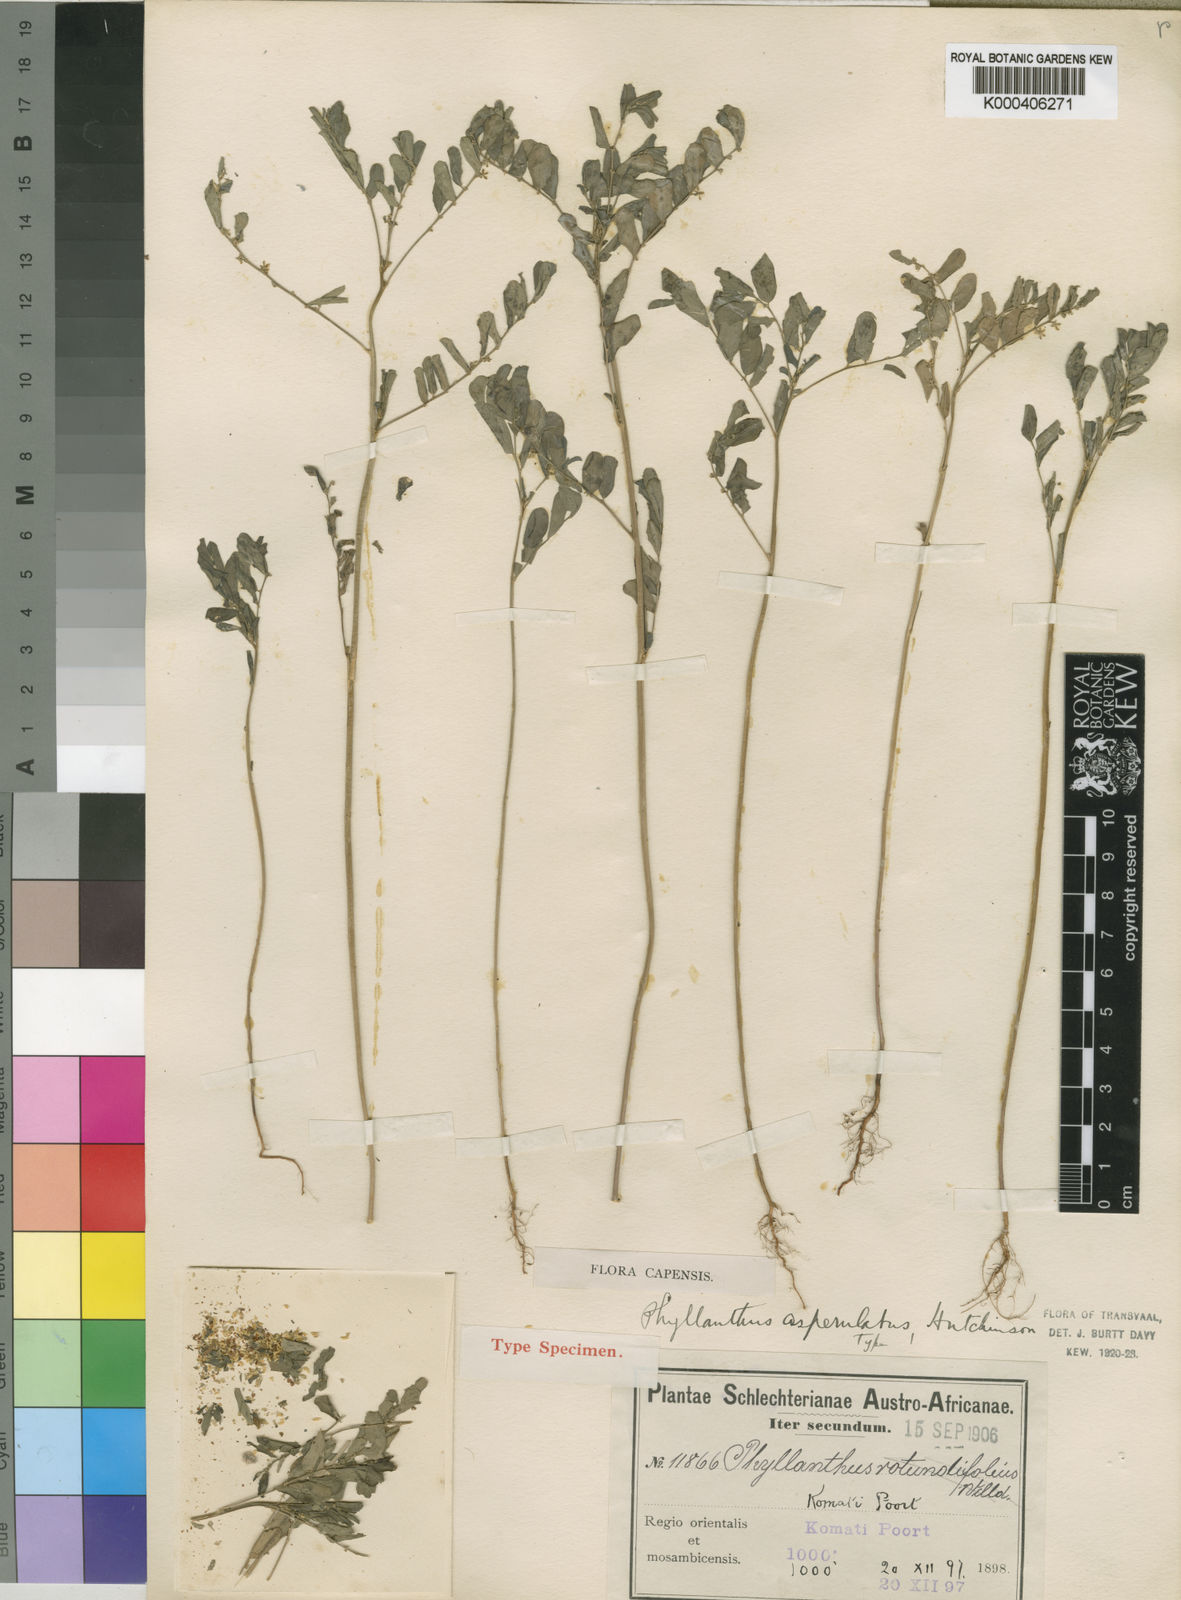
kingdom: Plantae
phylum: Tracheophyta
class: Magnoliopsida
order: Malpighiales
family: Phyllanthaceae
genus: Phyllanthus
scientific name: Phyllanthus asperulatus
